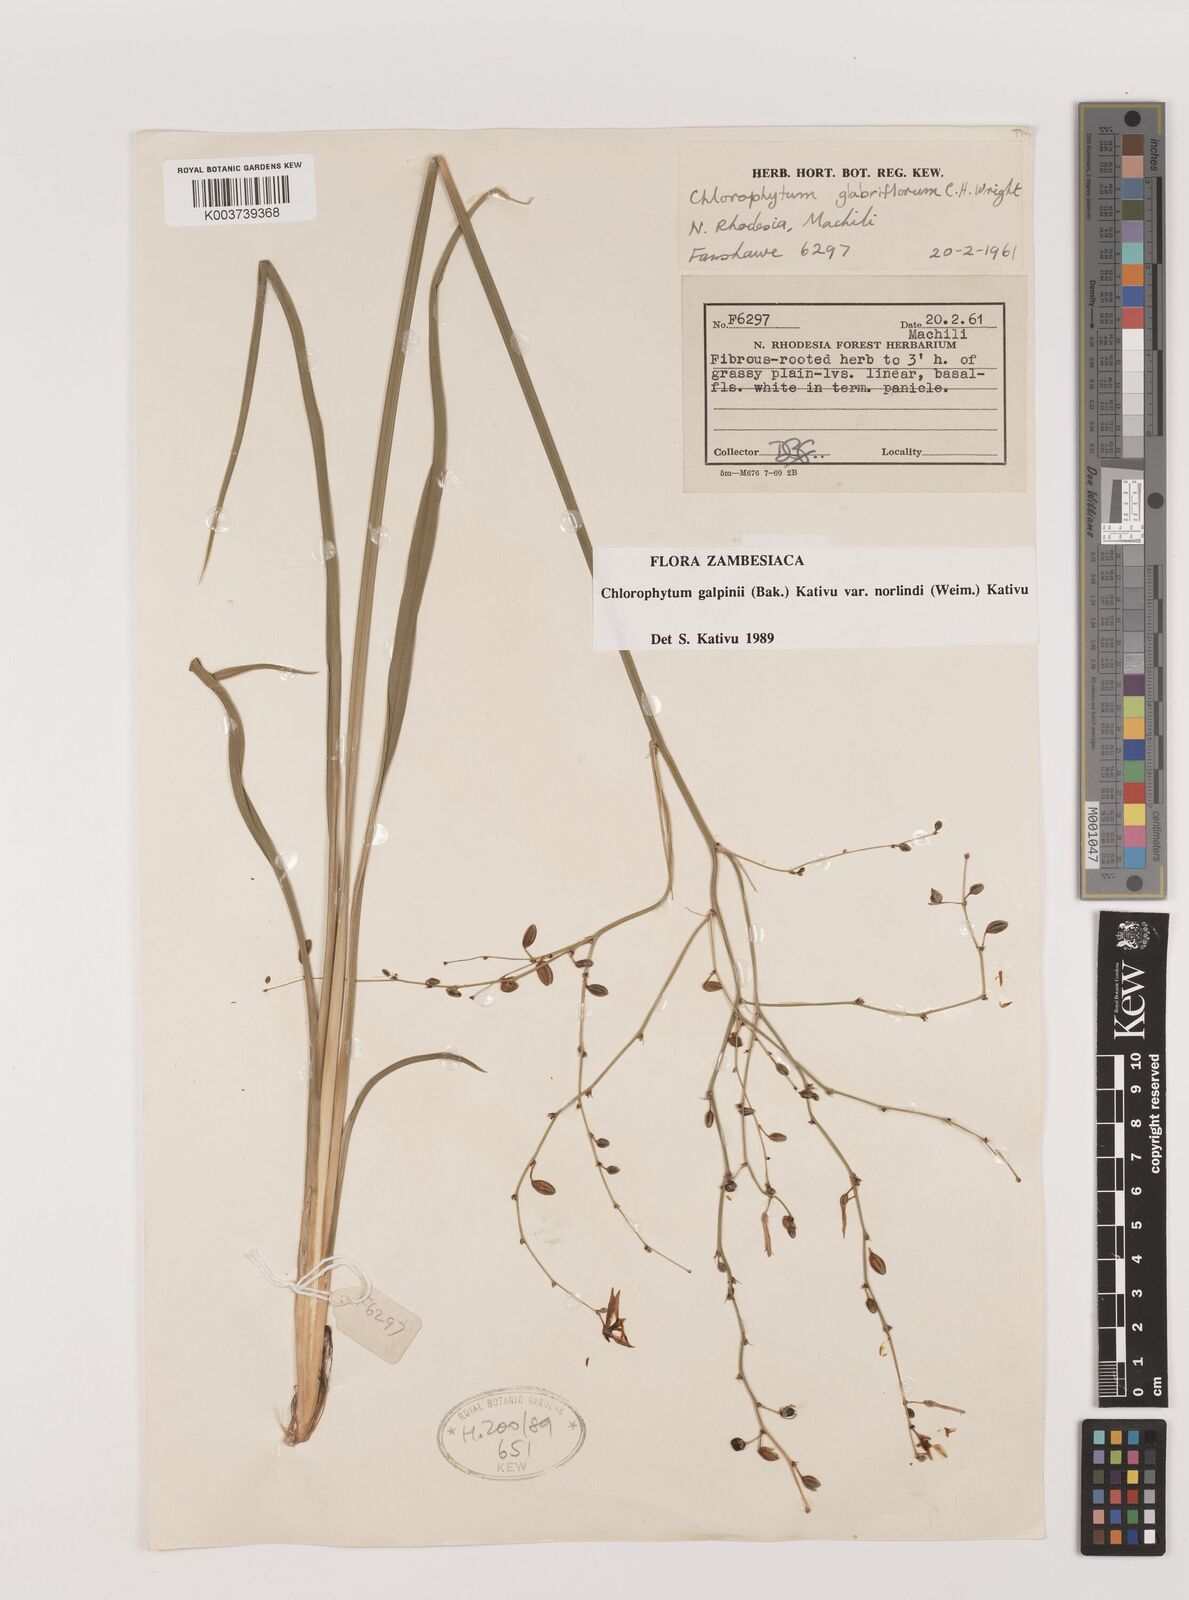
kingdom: Plantae
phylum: Tracheophyta
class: Liliopsida
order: Asparagales
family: Asparagaceae
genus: Chlorophytum
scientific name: Chlorophytum galpinii
